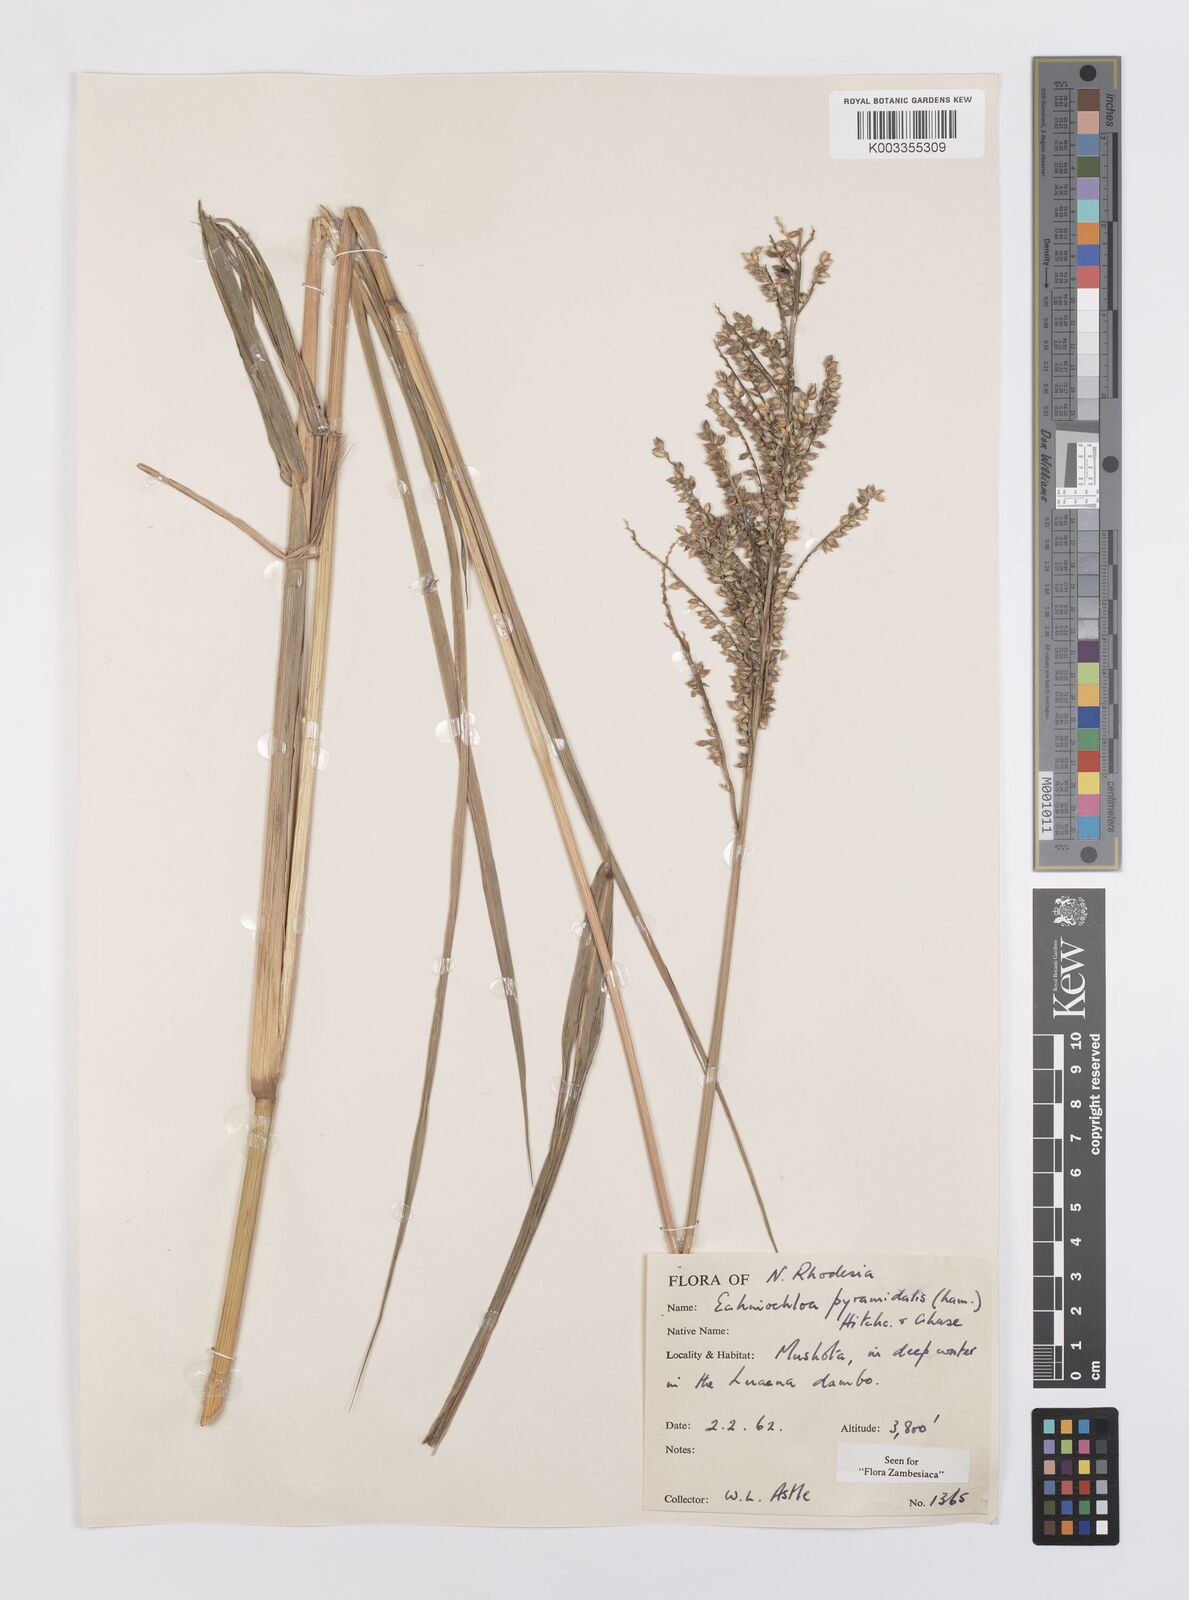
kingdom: Plantae
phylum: Tracheophyta
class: Liliopsida
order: Poales
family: Poaceae
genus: Echinochloa
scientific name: Echinochloa pyramidalis
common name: Antelope grass
